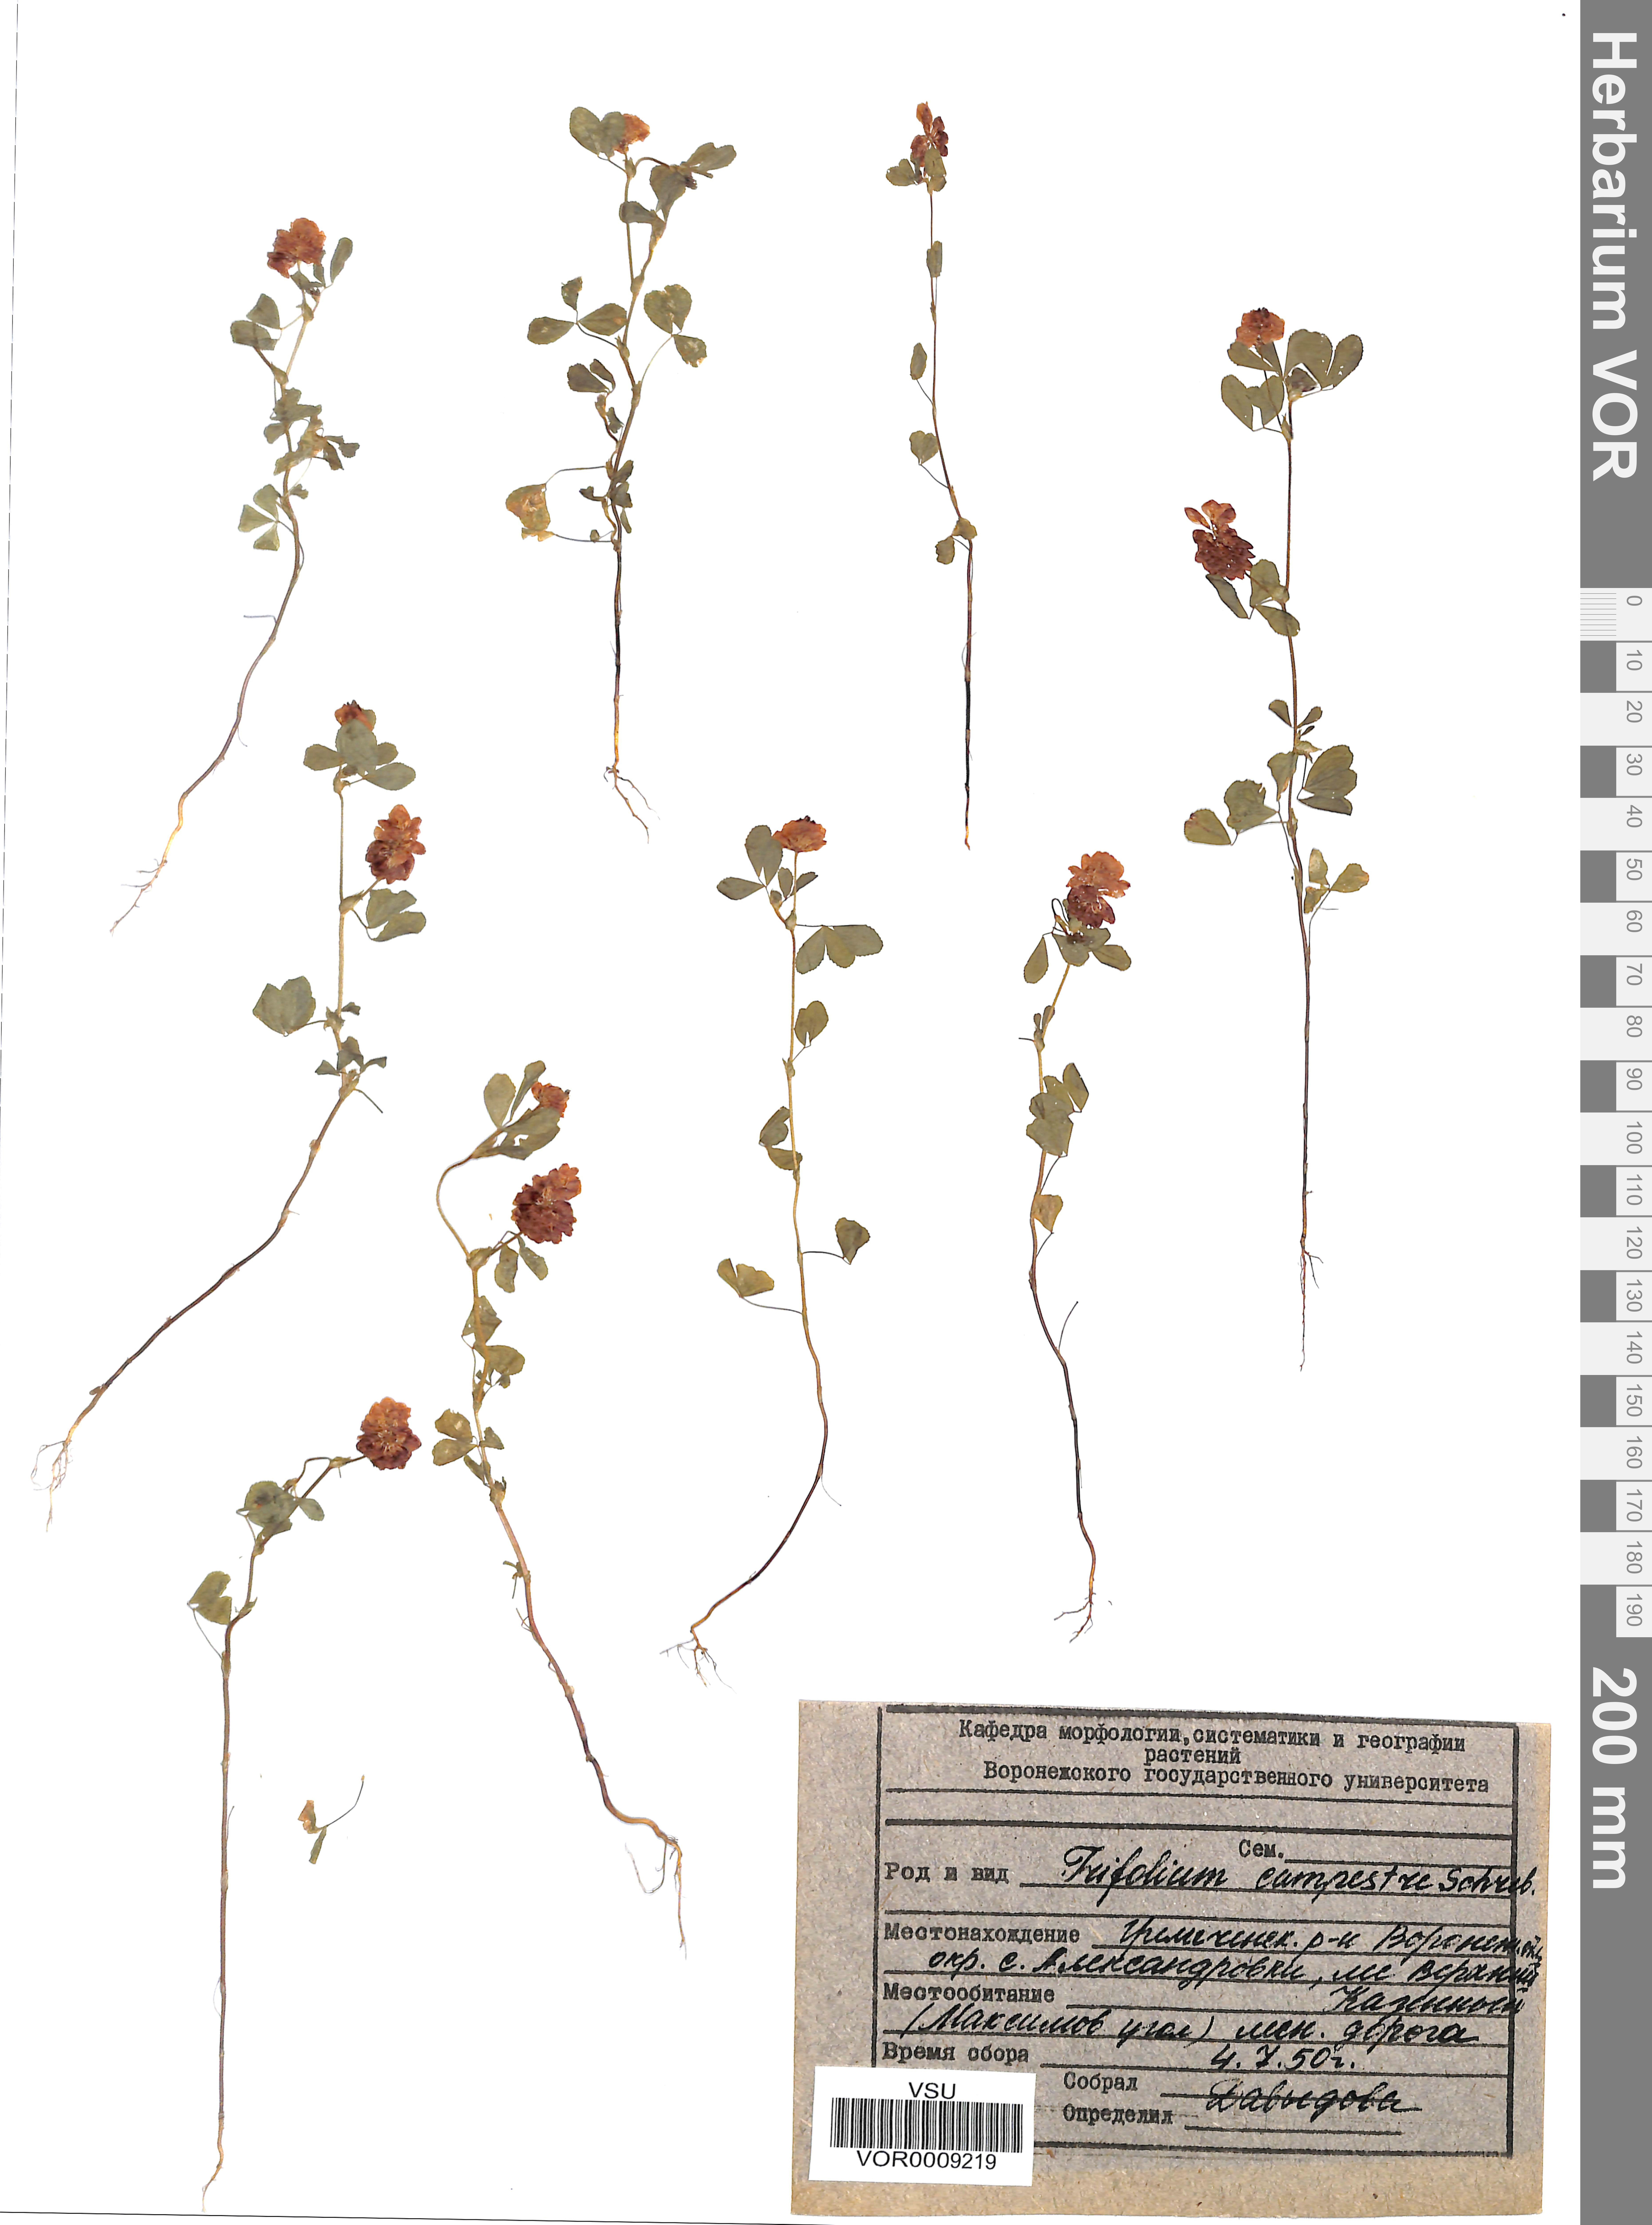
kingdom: Plantae
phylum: Tracheophyta
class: Magnoliopsida
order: Fabales
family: Fabaceae
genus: Trifolium
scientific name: Trifolium campestre
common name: Field clover
